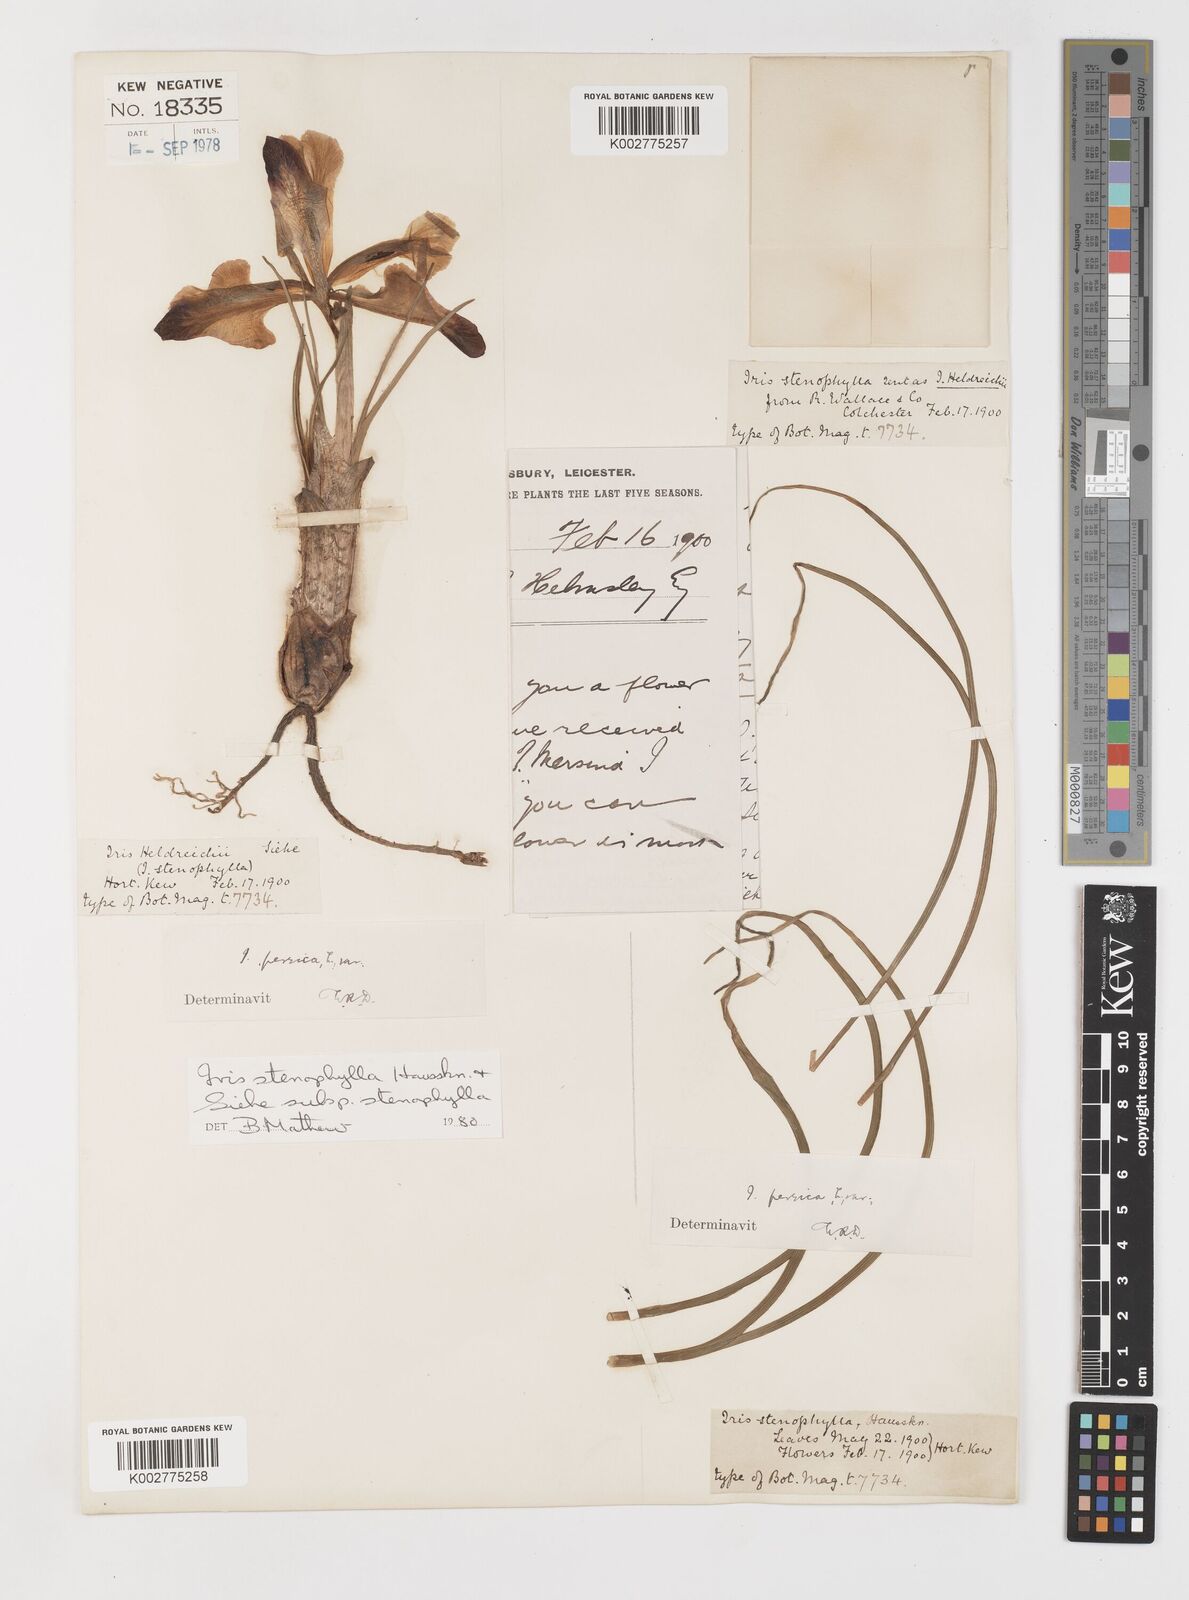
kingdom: Plantae
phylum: Tracheophyta
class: Liliopsida
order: Asparagales
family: Iridaceae
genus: Iris
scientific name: Iris stenophylla
